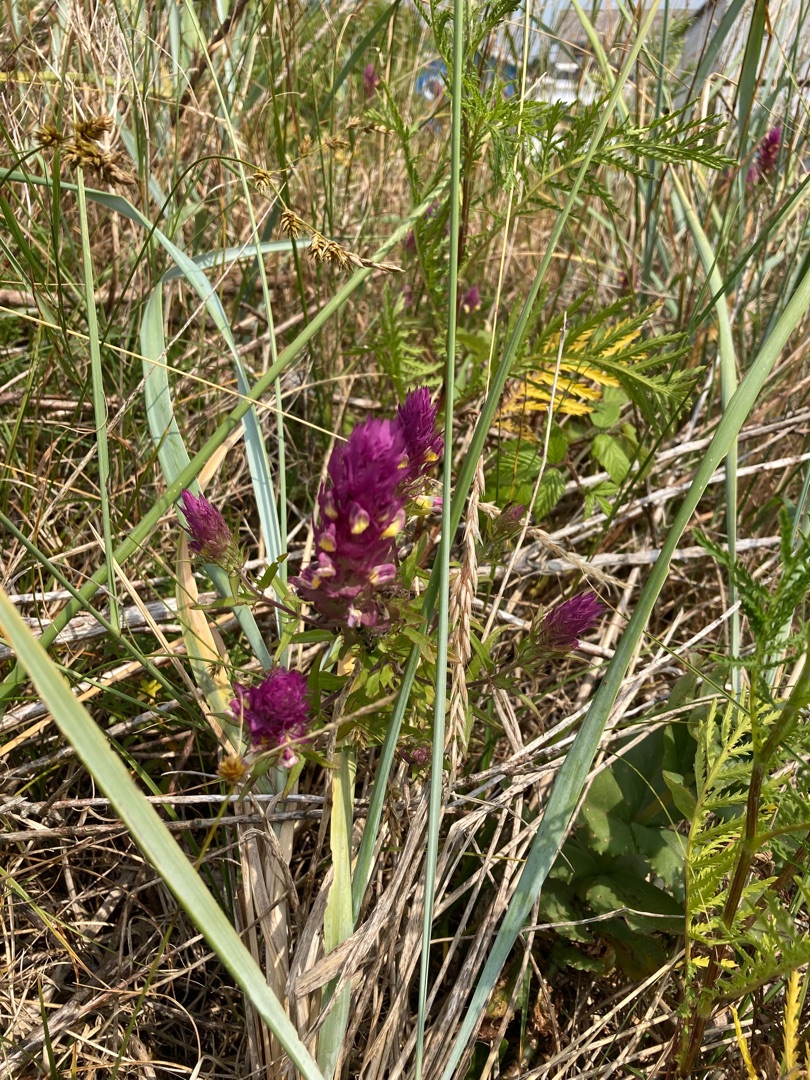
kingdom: Plantae
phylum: Tracheophyta
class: Magnoliopsida
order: Lamiales
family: Orobanchaceae
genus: Melampyrum
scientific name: Melampyrum arvense
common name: Ager-kohvede
